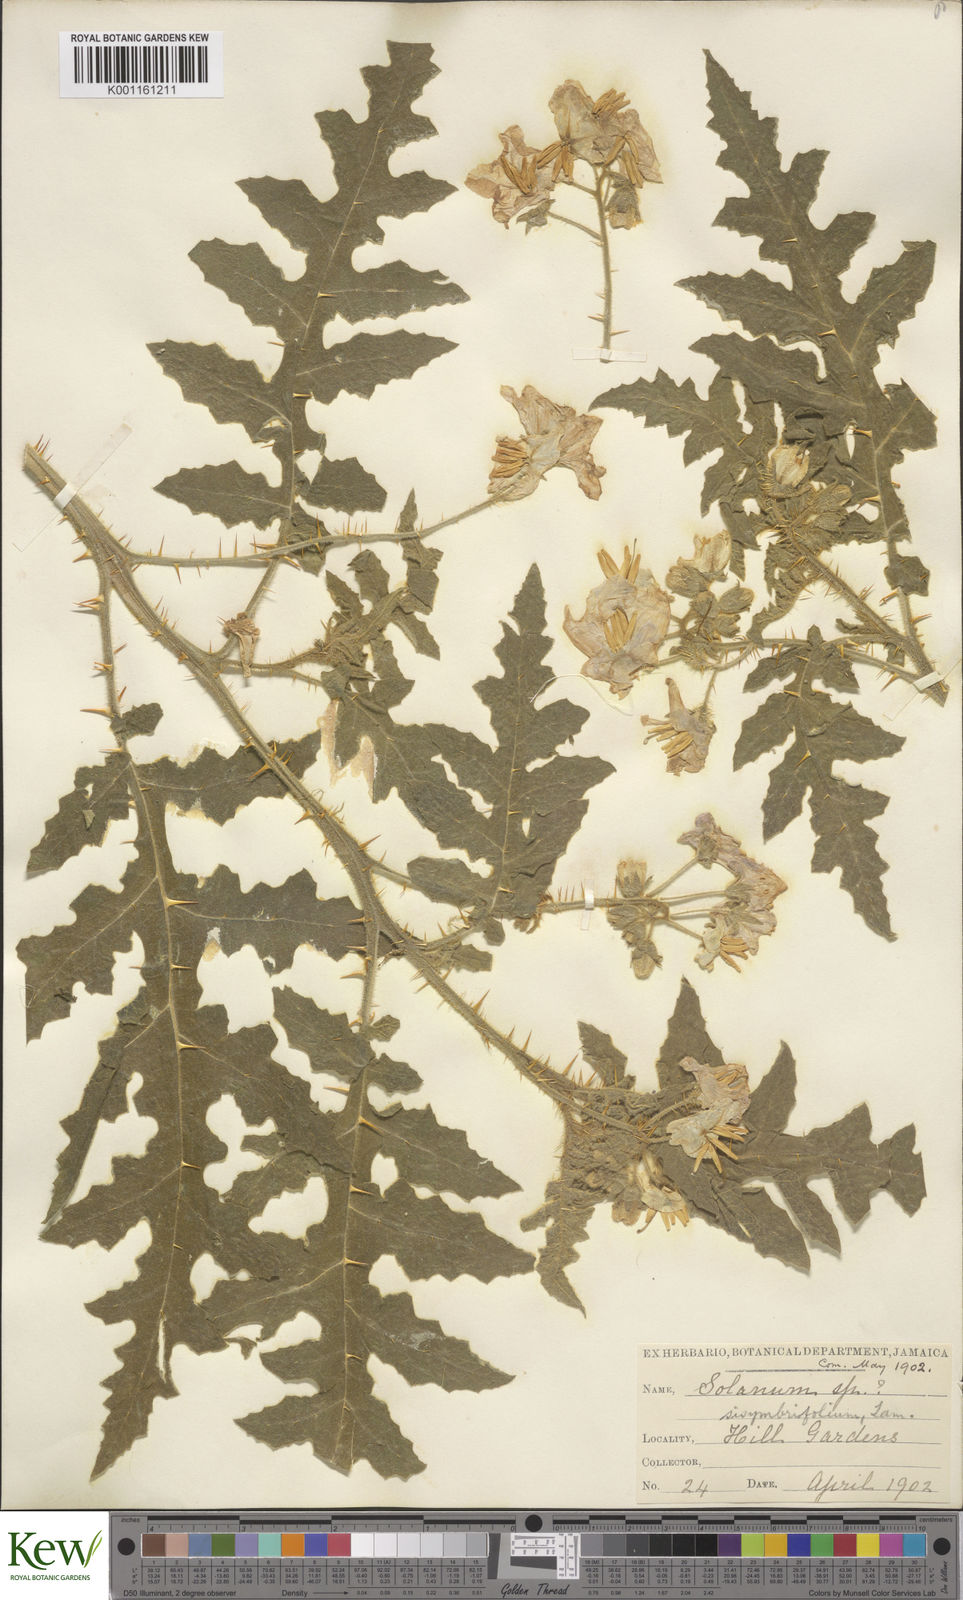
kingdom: Plantae
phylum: Tracheophyta
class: Magnoliopsida
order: Solanales
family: Solanaceae
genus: Solanum
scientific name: Solanum sisymbriifolium
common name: Red buffalo-bur
